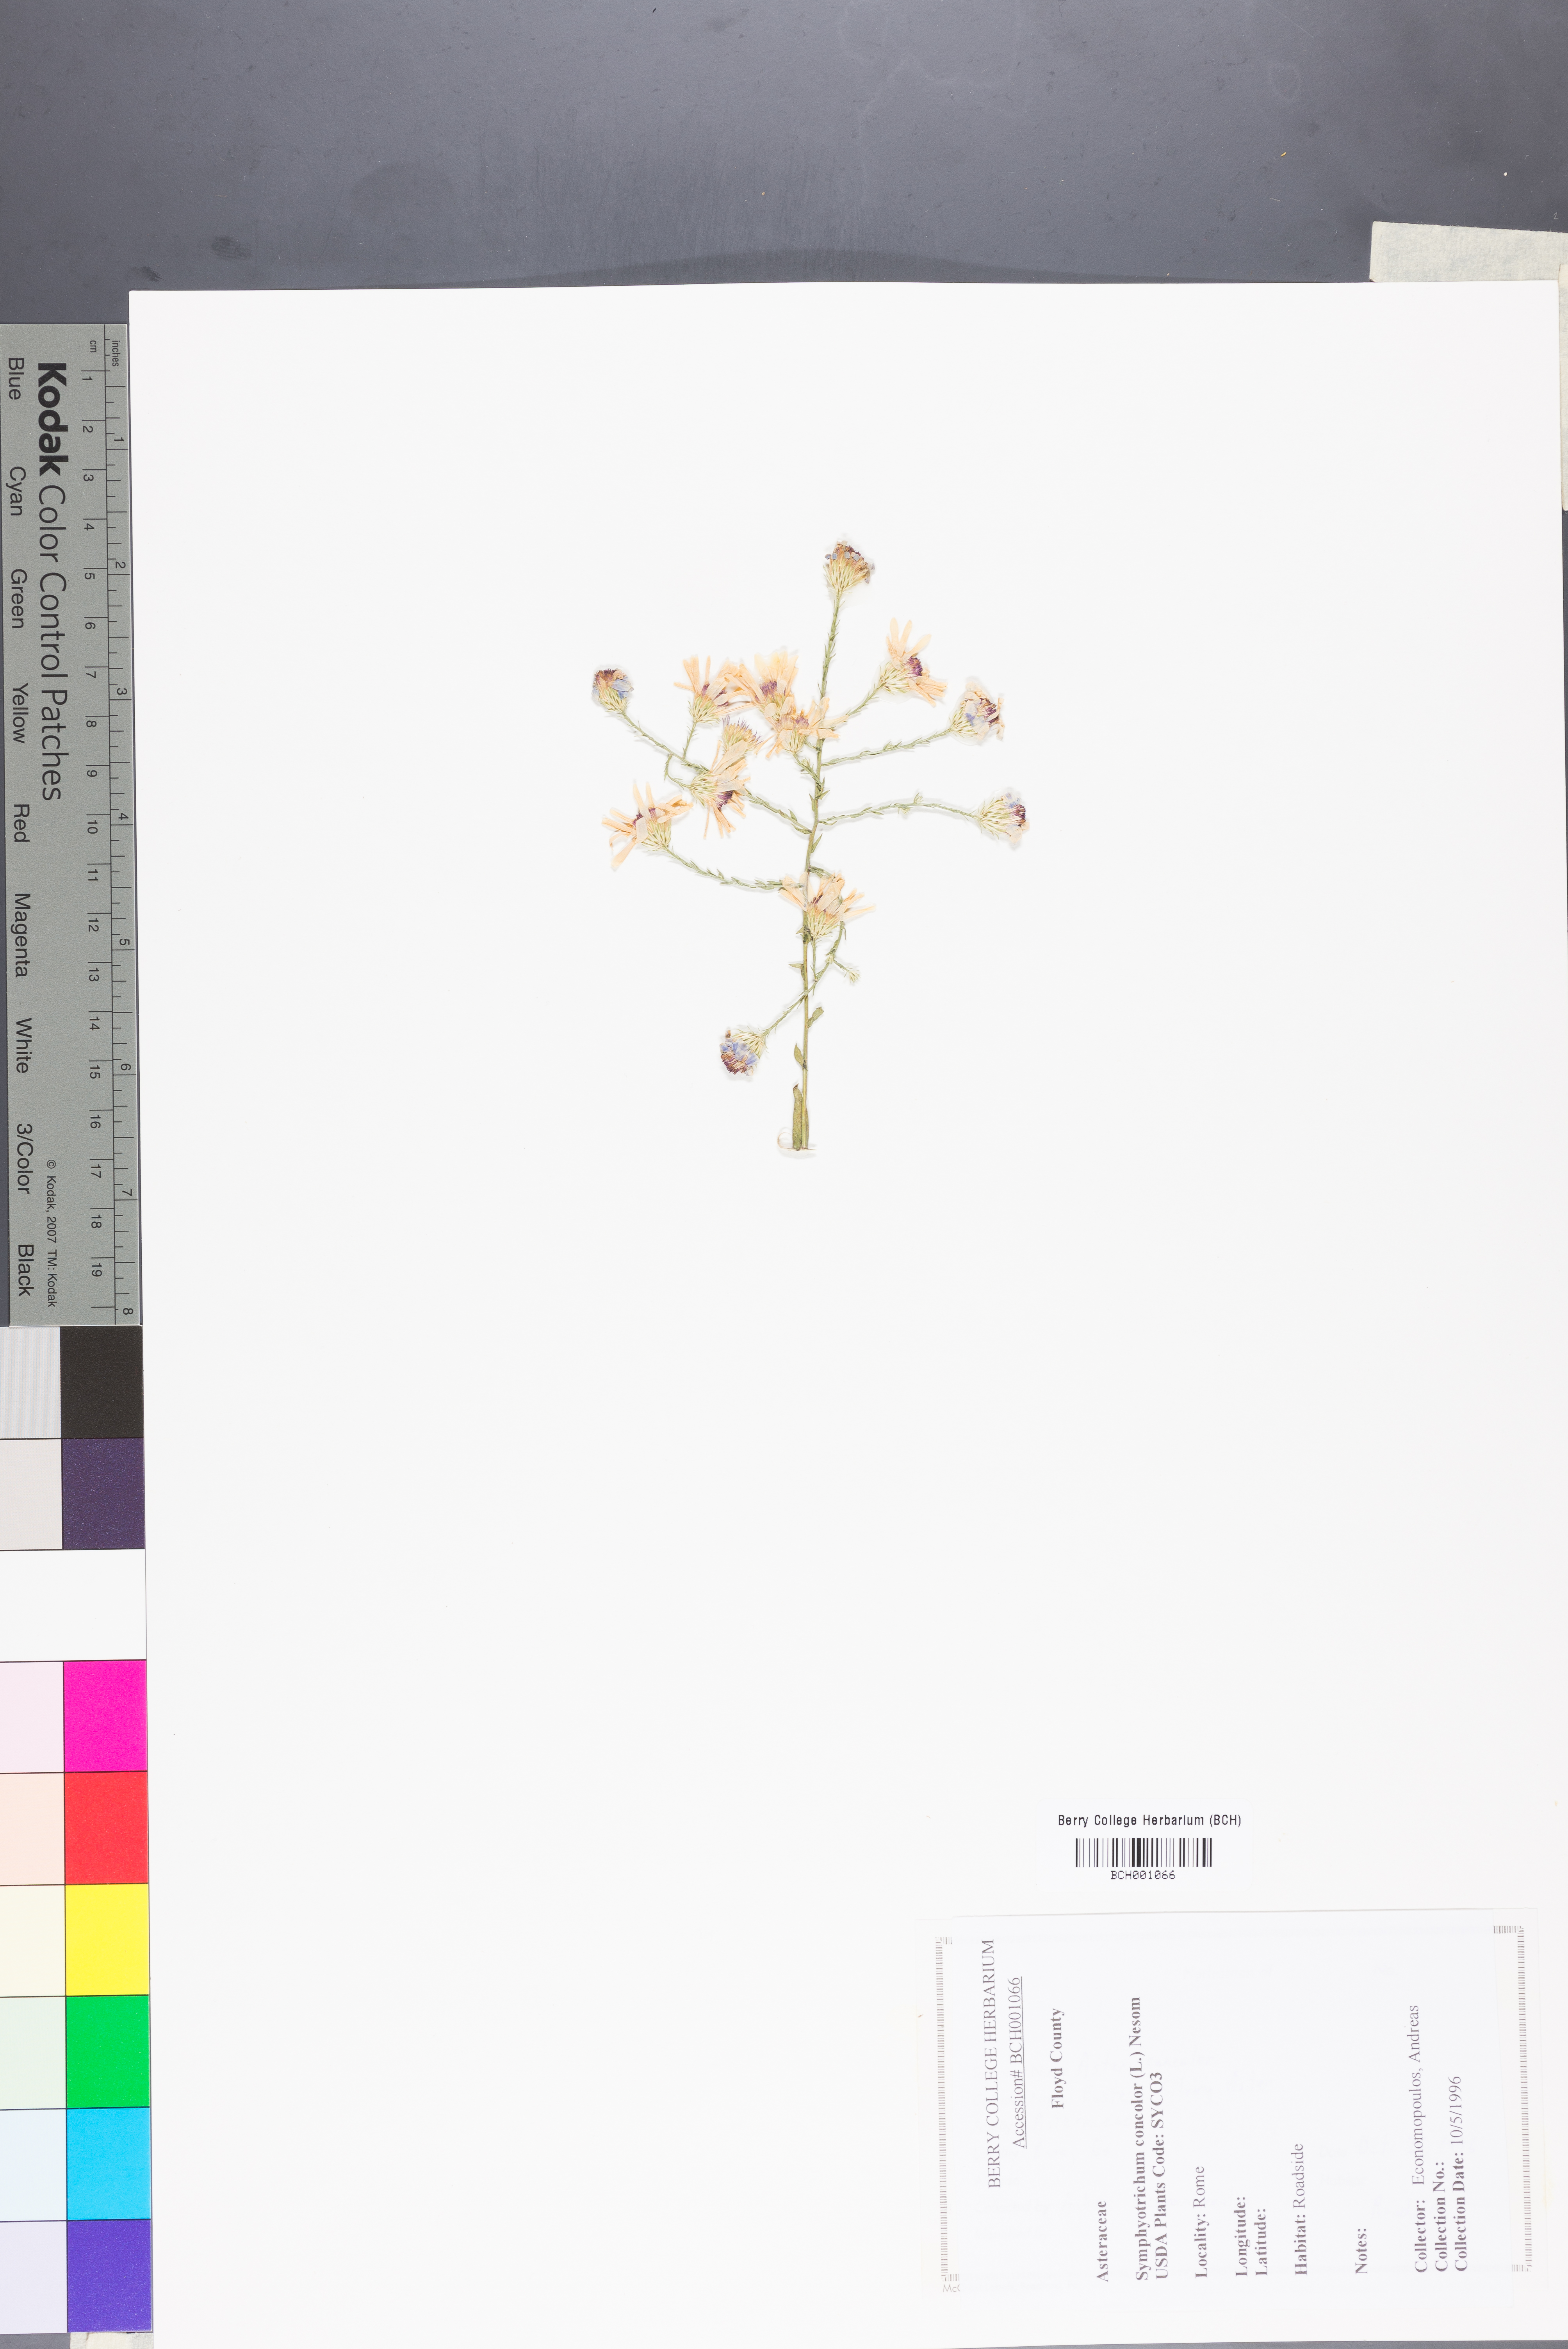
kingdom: Plantae
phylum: Tracheophyta
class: Magnoliopsida
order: Asterales
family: Asteraceae
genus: Symphyotrichum
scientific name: Symphyotrichum concolor
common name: Eastern silver aster
